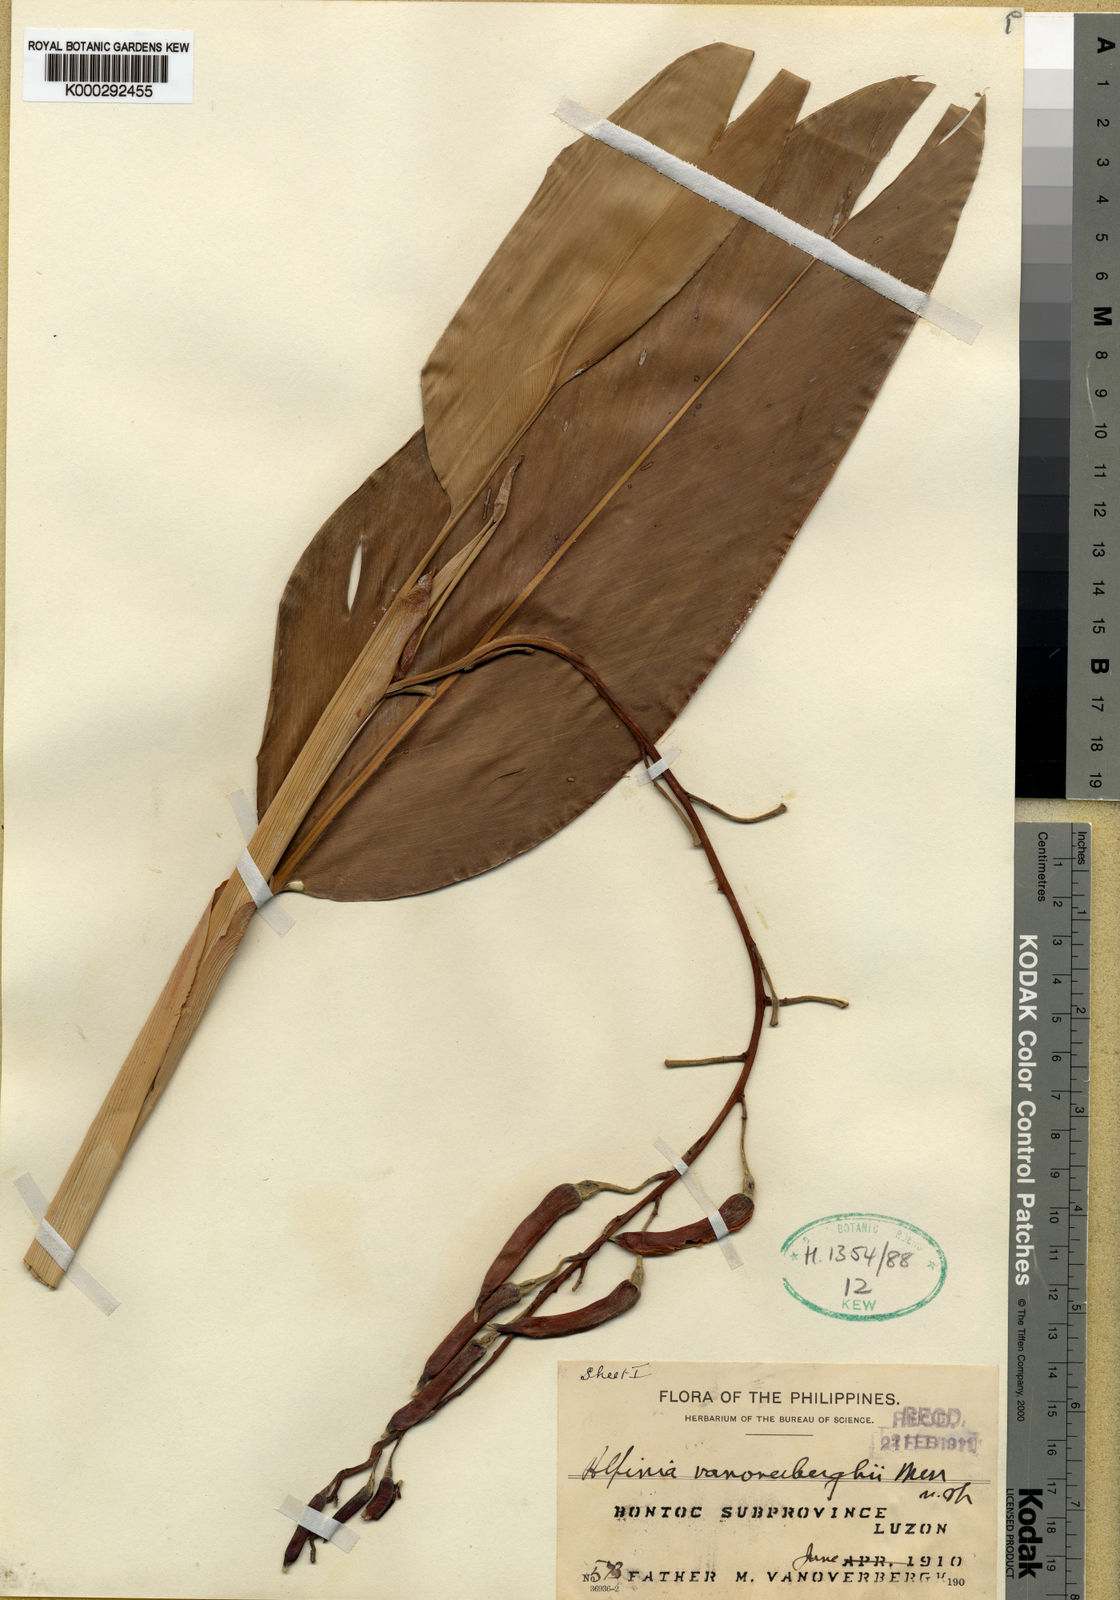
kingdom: Plantae
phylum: Tracheophyta
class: Liliopsida
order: Zingiberales
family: Zingiberaceae
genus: Vanoverberghia
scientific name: Vanoverberghia vanoverberghii
